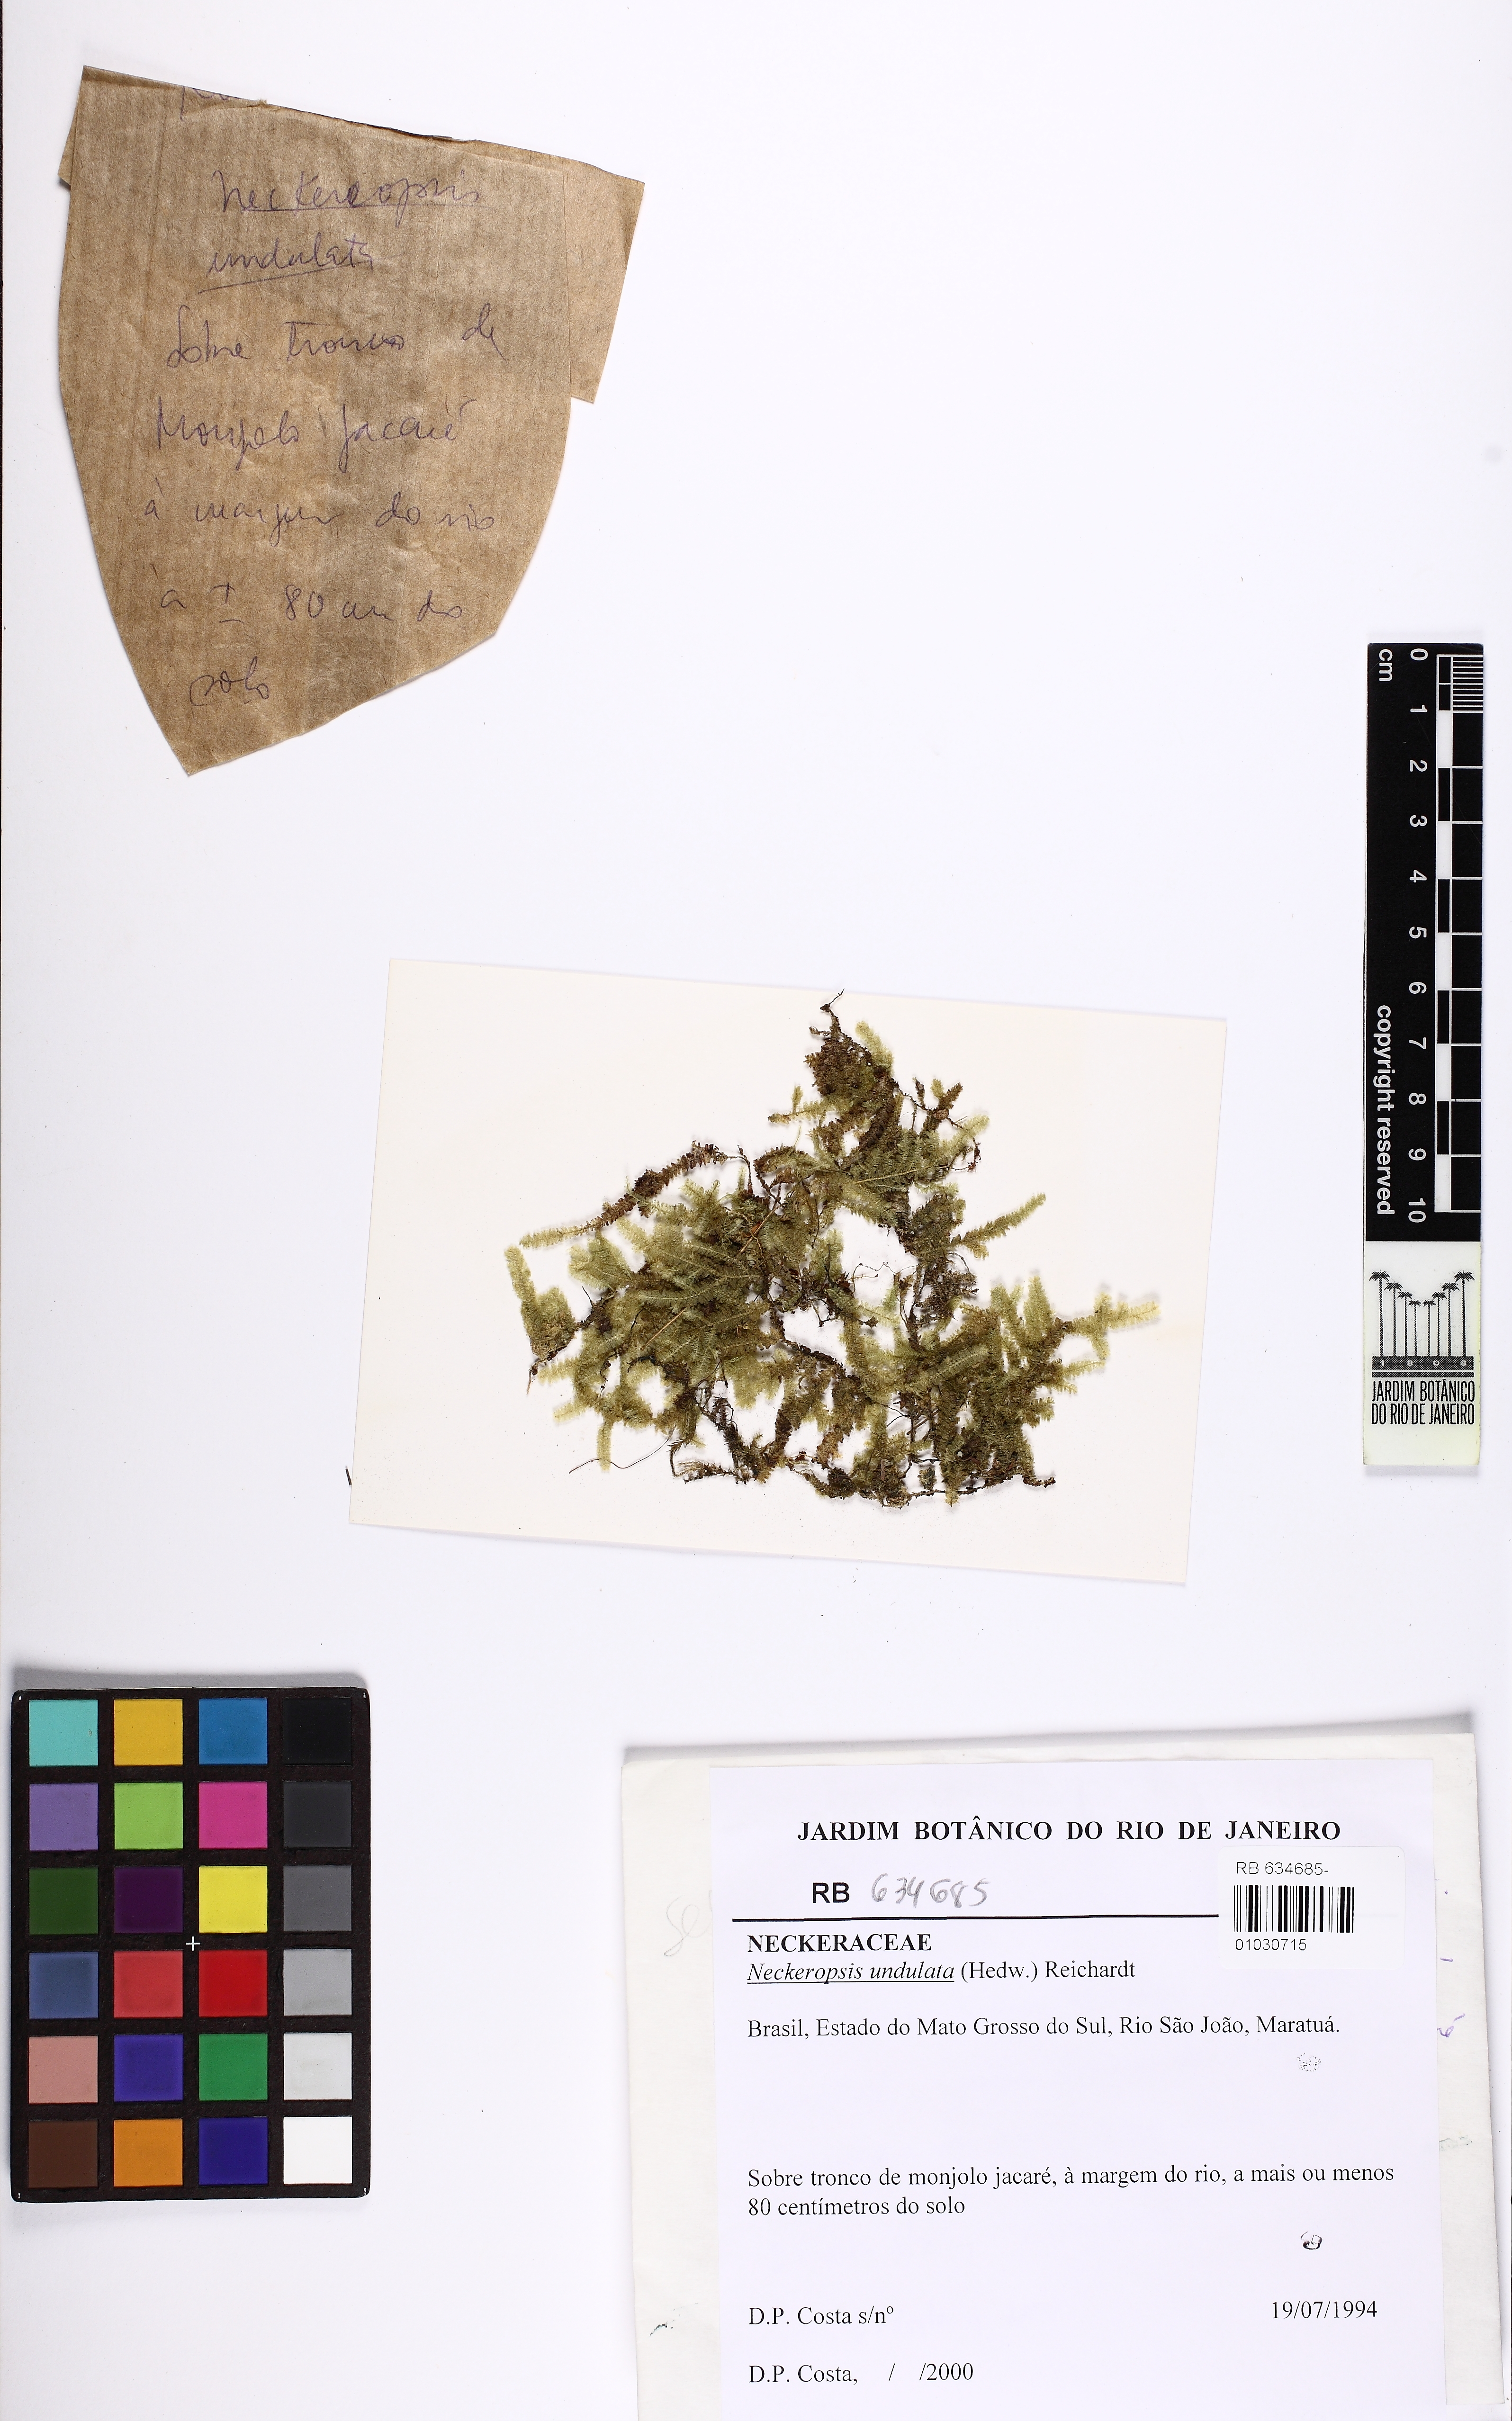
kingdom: Plantae
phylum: Bryophyta
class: Bryopsida
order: Hypnales
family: Neckeraceae
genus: Neckeropsis
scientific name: Neckeropsis undulata
